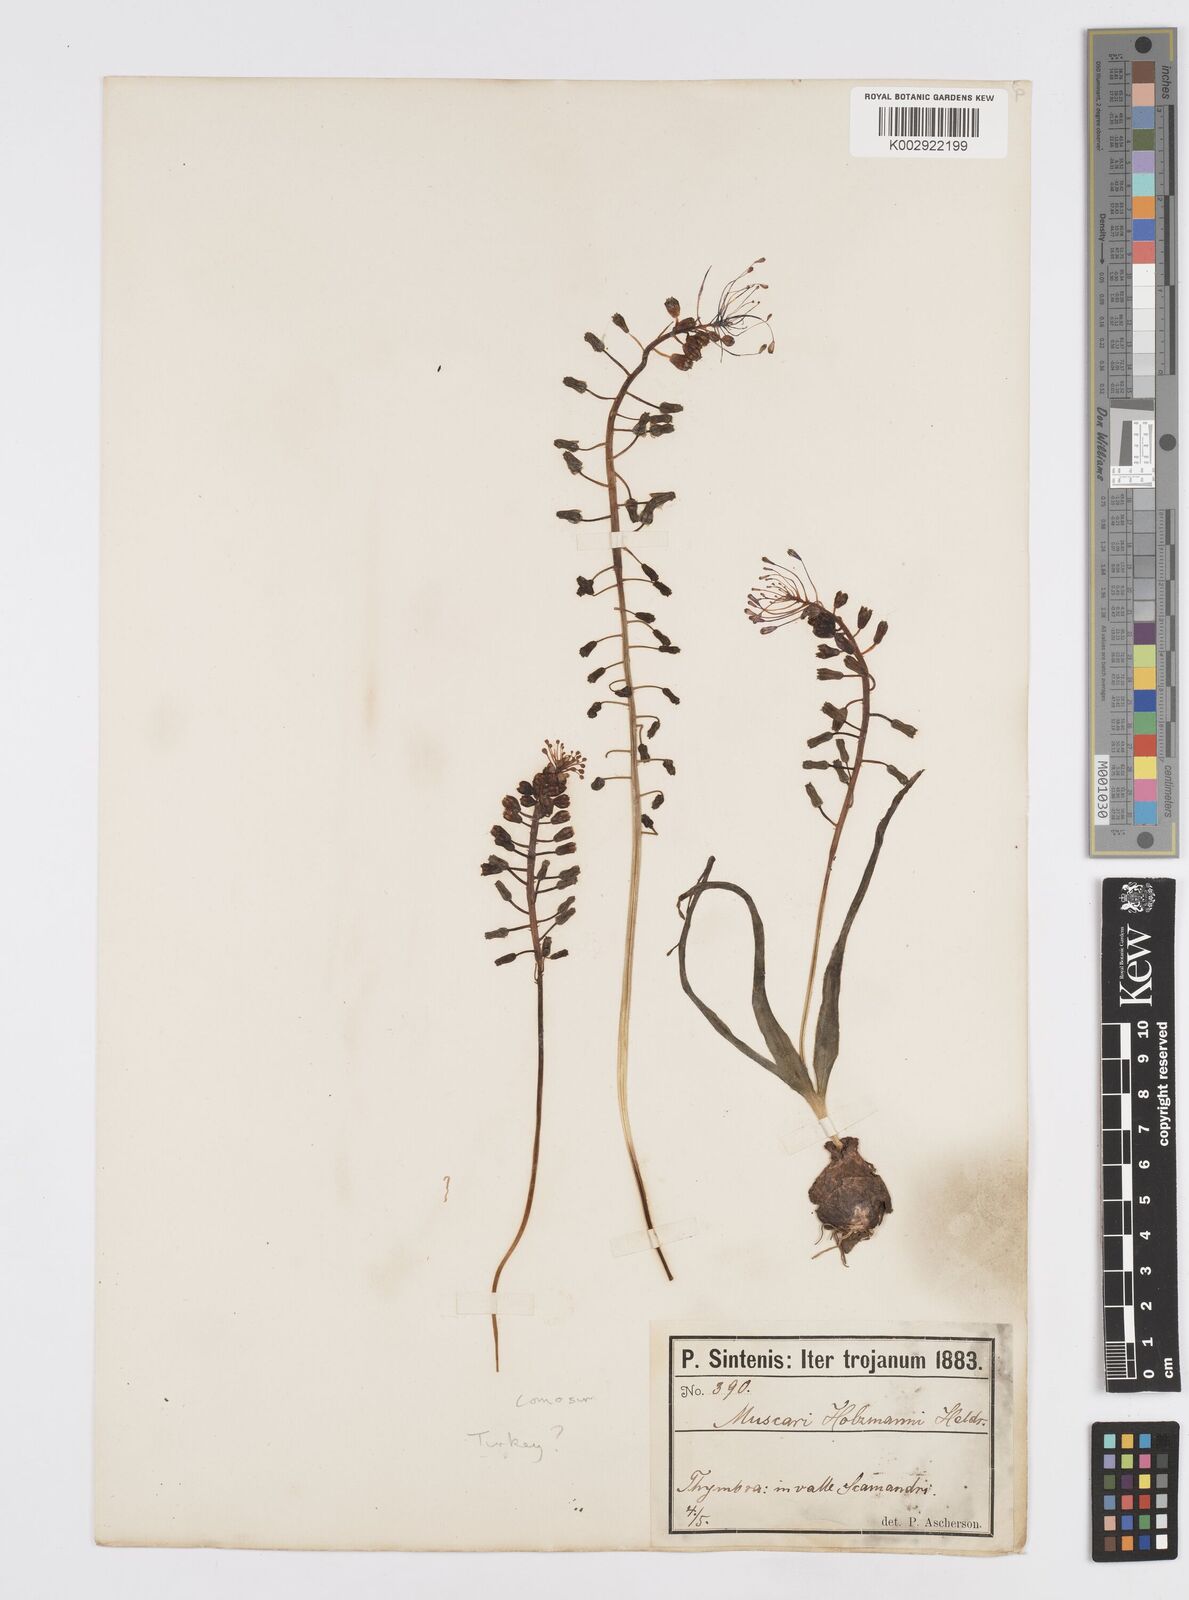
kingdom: Plantae
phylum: Tracheophyta
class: Liliopsida
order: Asparagales
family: Asparagaceae
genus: Muscari
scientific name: Muscari comosum
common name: Tassel hyacinth
